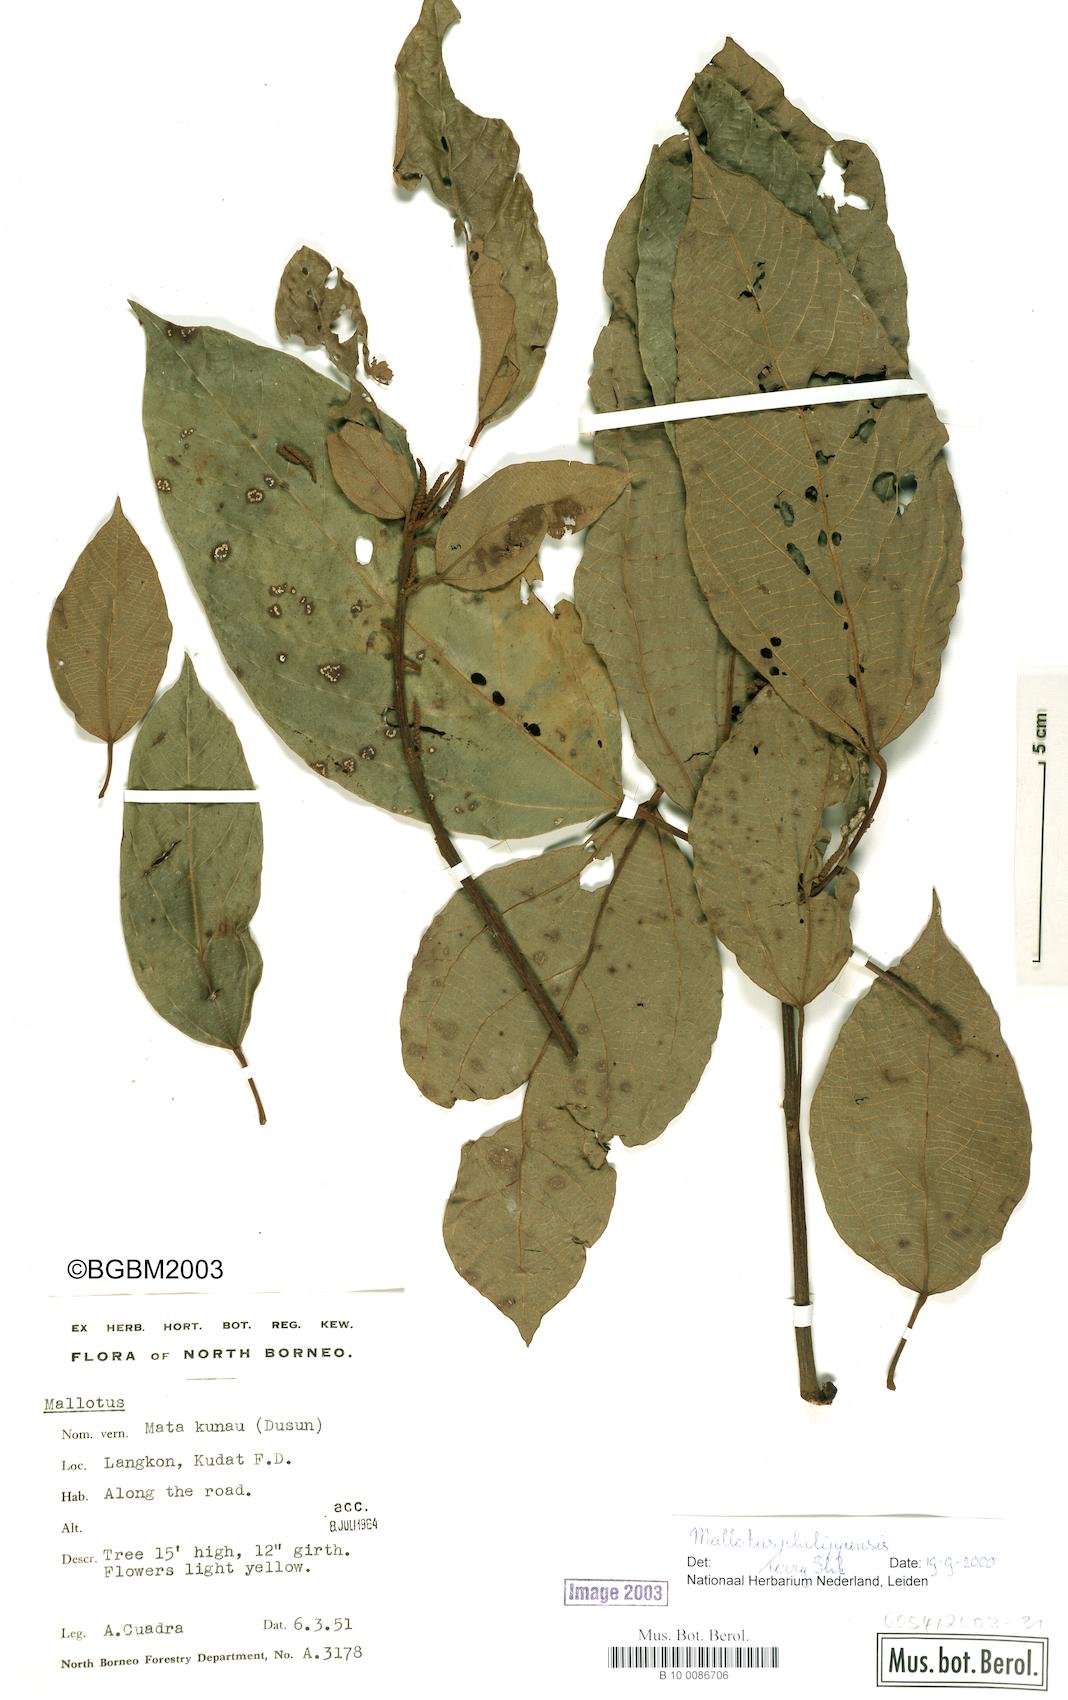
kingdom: Plantae
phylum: Tracheophyta
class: Magnoliopsida
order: Malpighiales
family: Euphorbiaceae
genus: Mallotus
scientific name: Mallotus philippensis
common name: Kamala tree
